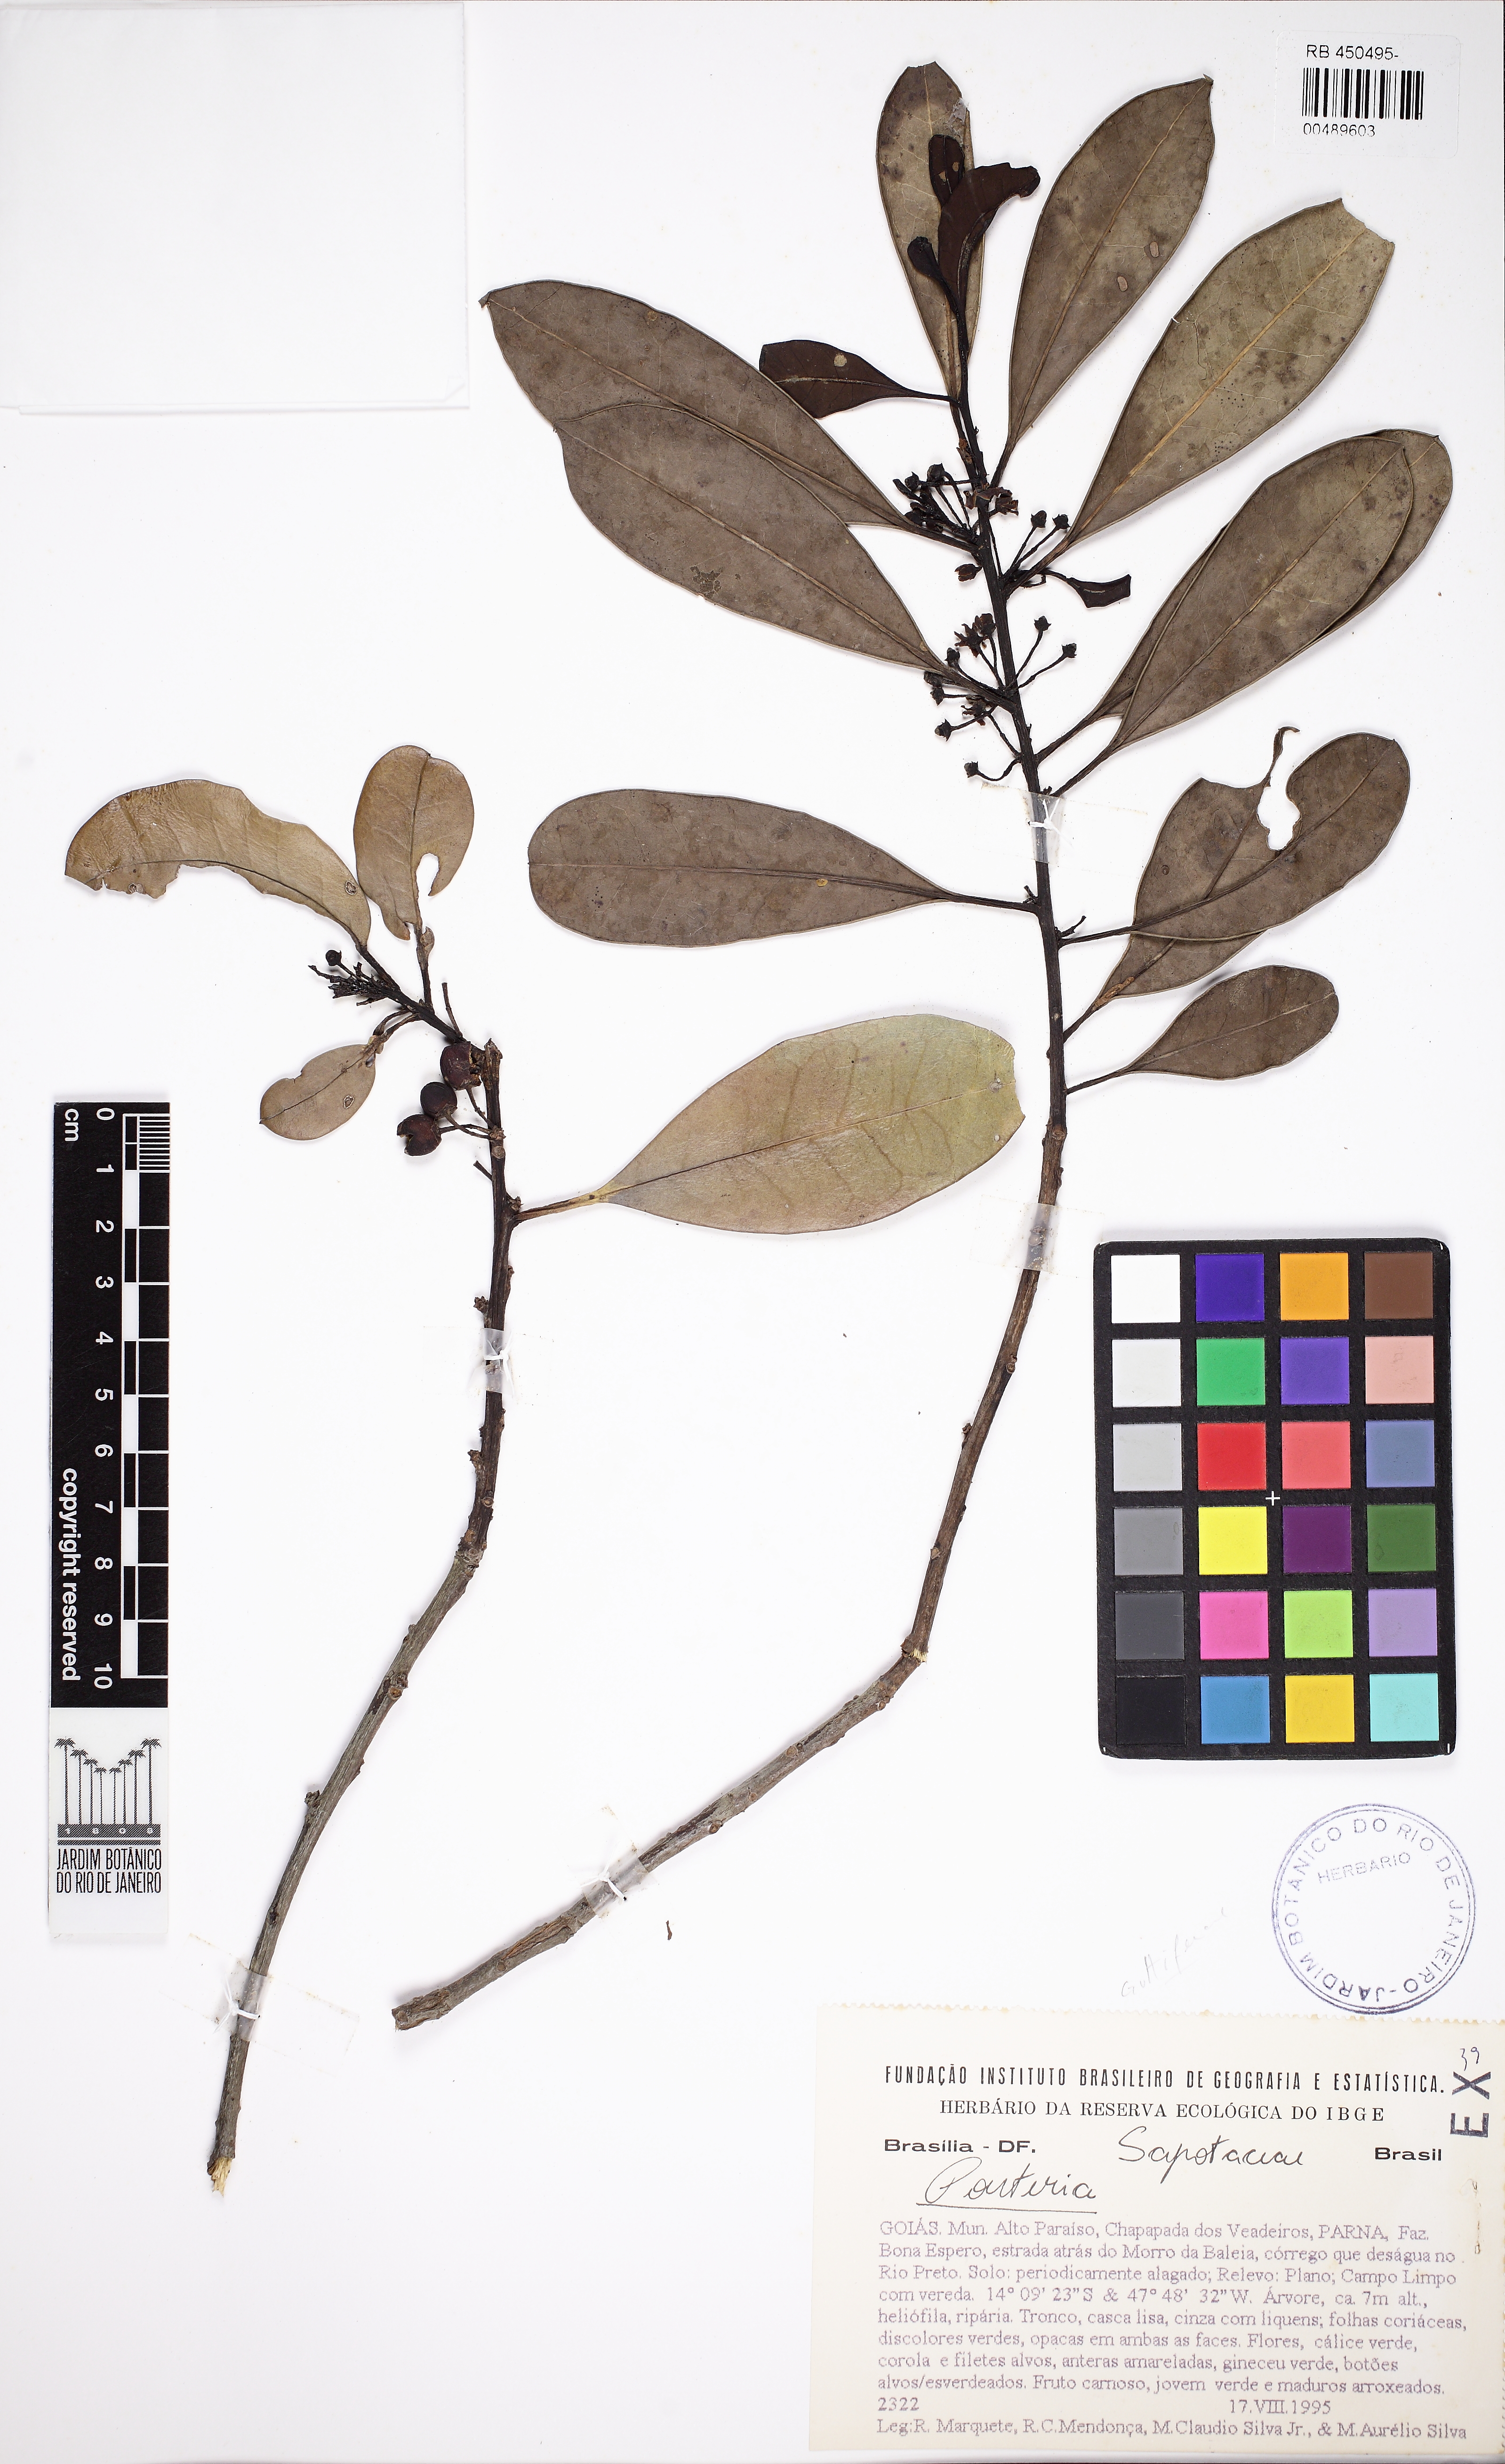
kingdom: Plantae
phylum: Tracheophyta
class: Magnoliopsida
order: Aquifoliales
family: Aquifoliaceae
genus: Ilex
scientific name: Ilex theezans
